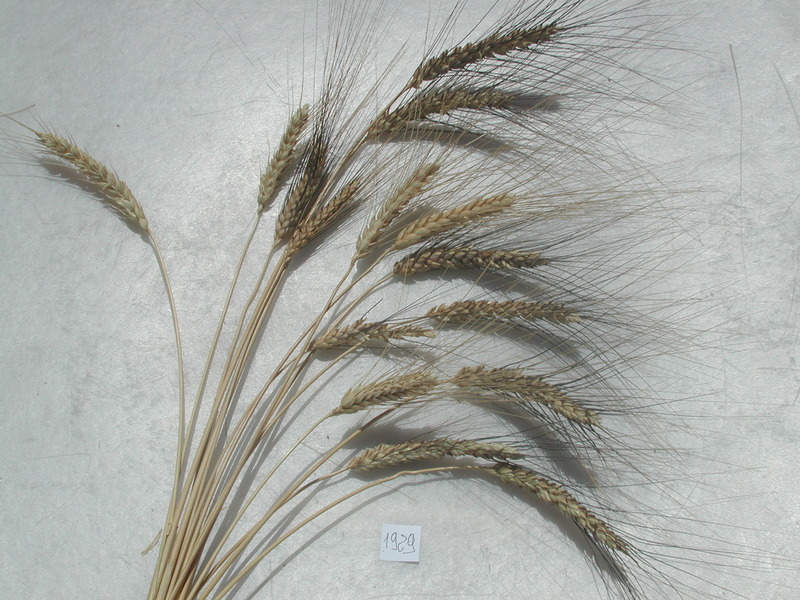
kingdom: Plantae
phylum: Tracheophyta
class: Liliopsida
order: Poales
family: Poaceae
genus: Triticum
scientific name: Triticum turgidum
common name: Wheat
